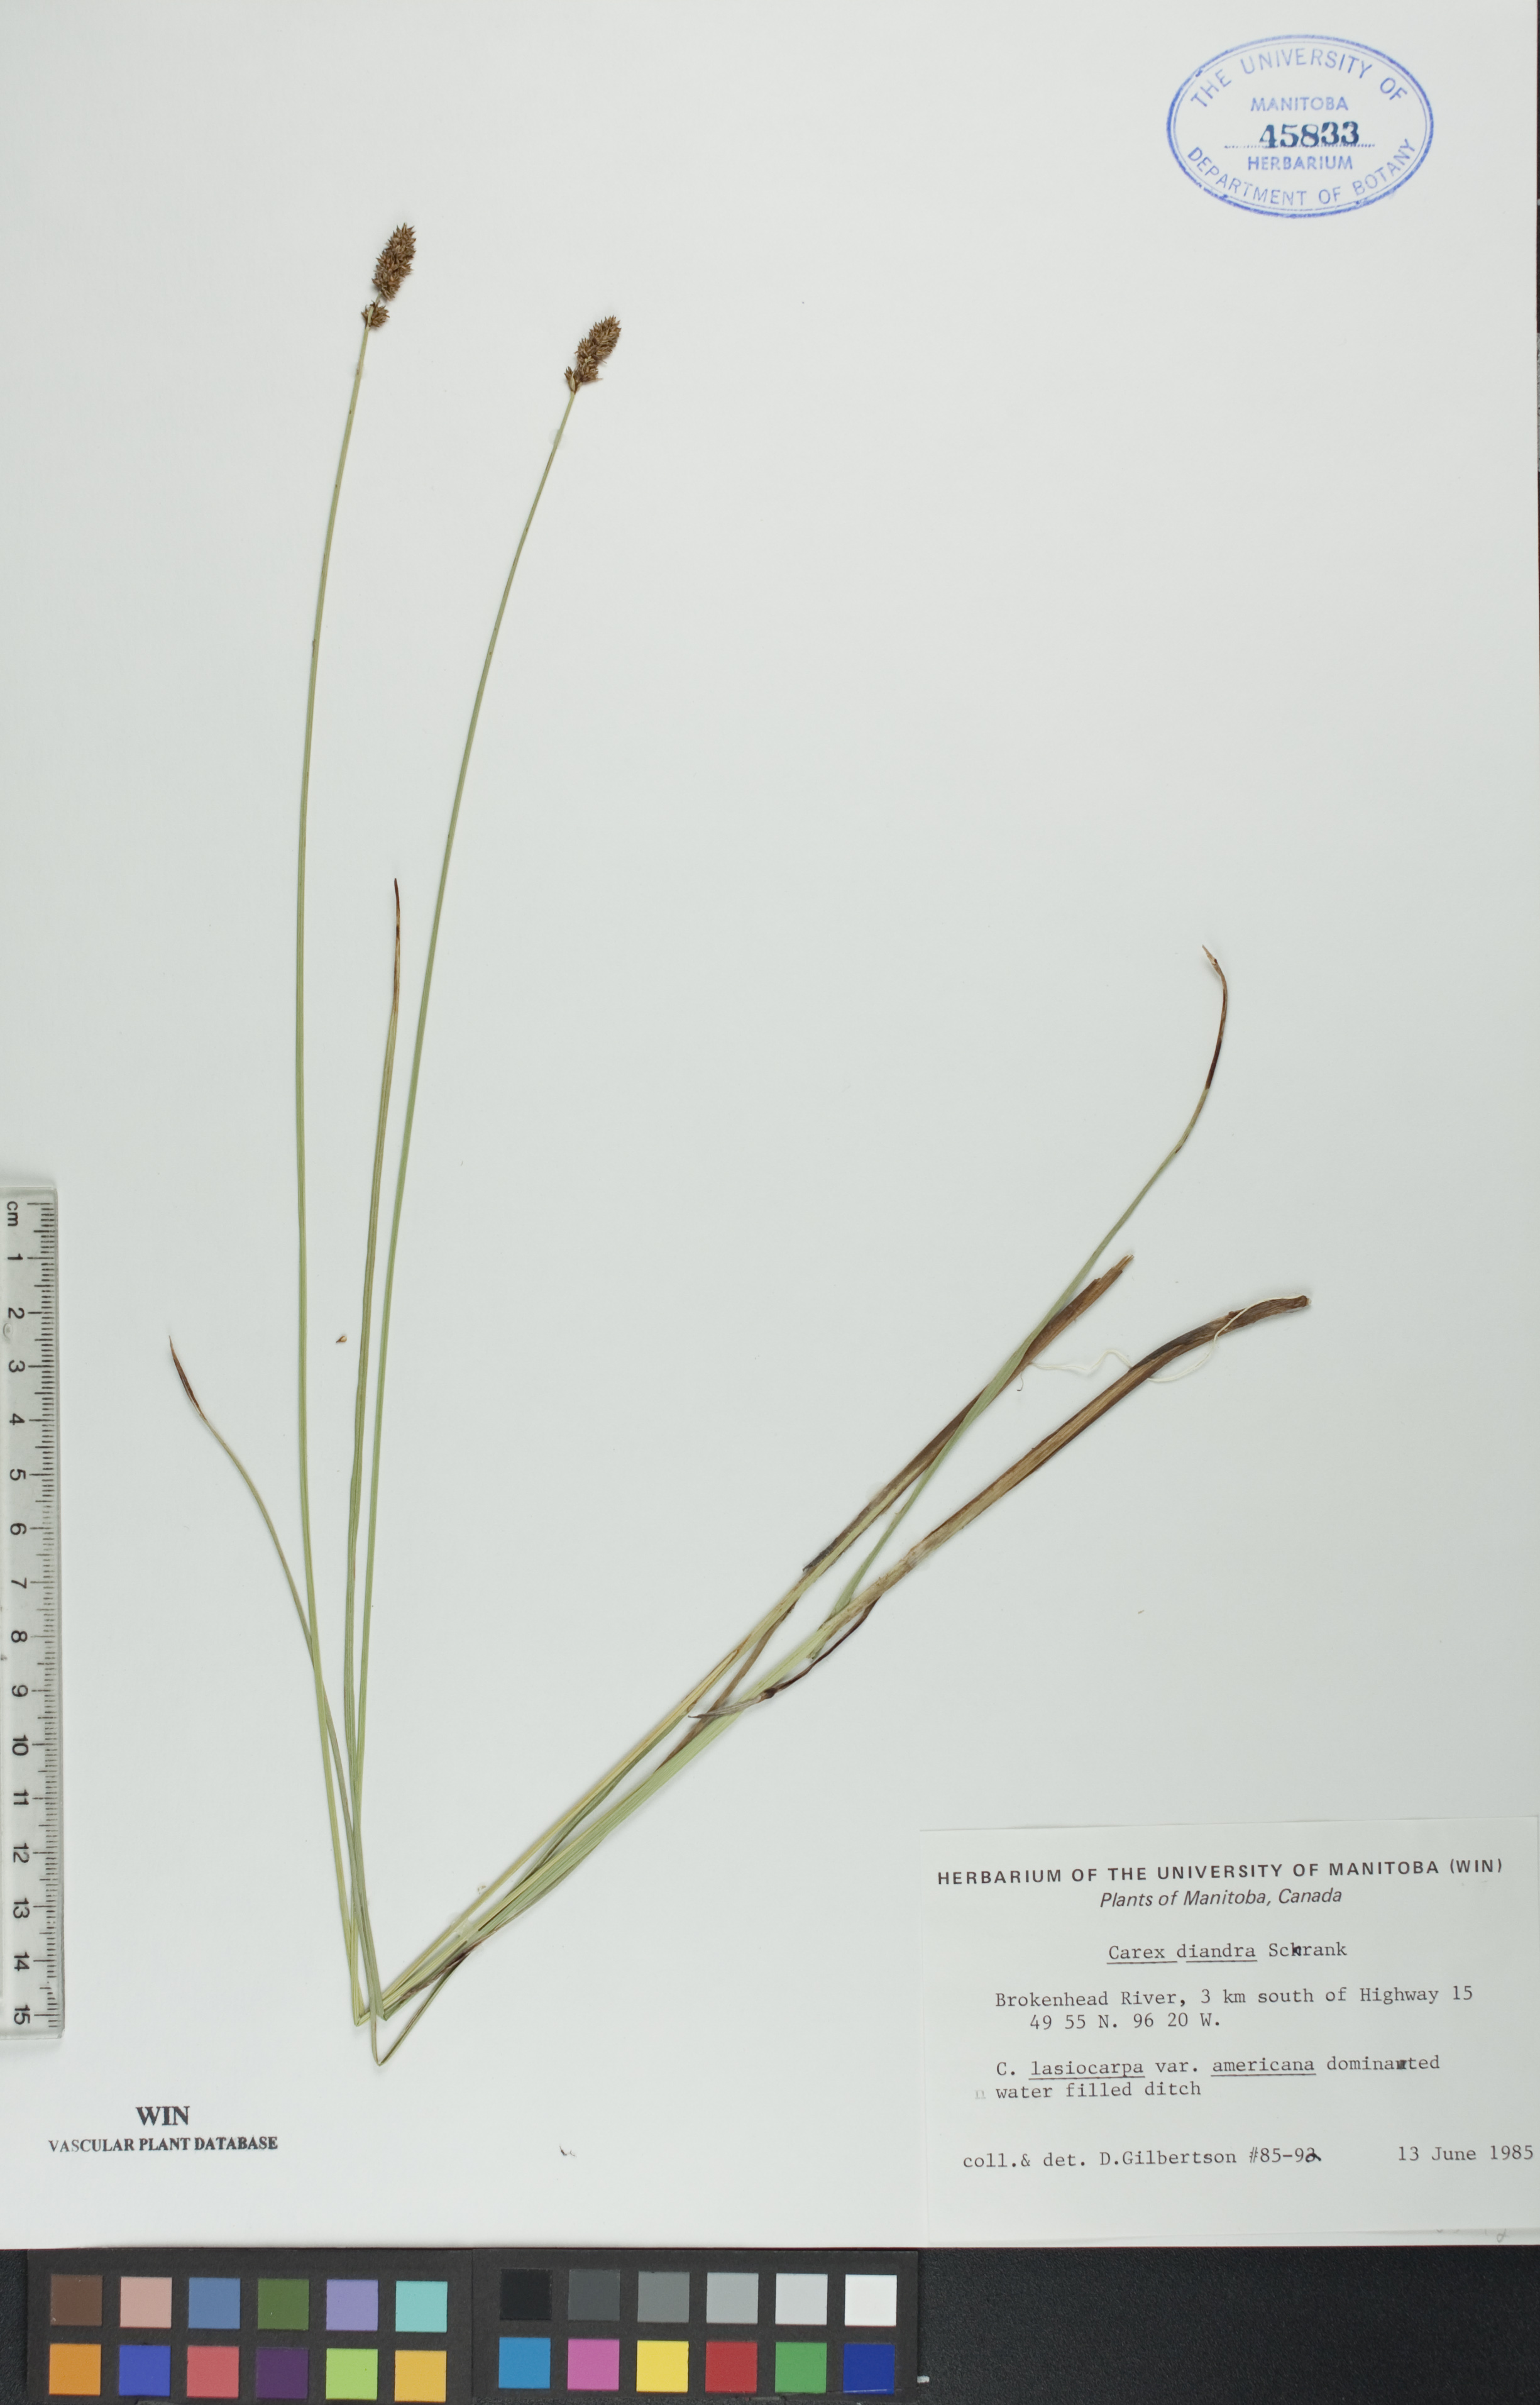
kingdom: Plantae
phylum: Tracheophyta
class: Liliopsida
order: Poales
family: Cyperaceae
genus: Carex
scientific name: Carex diandra
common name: Lesser tussock-sedge
